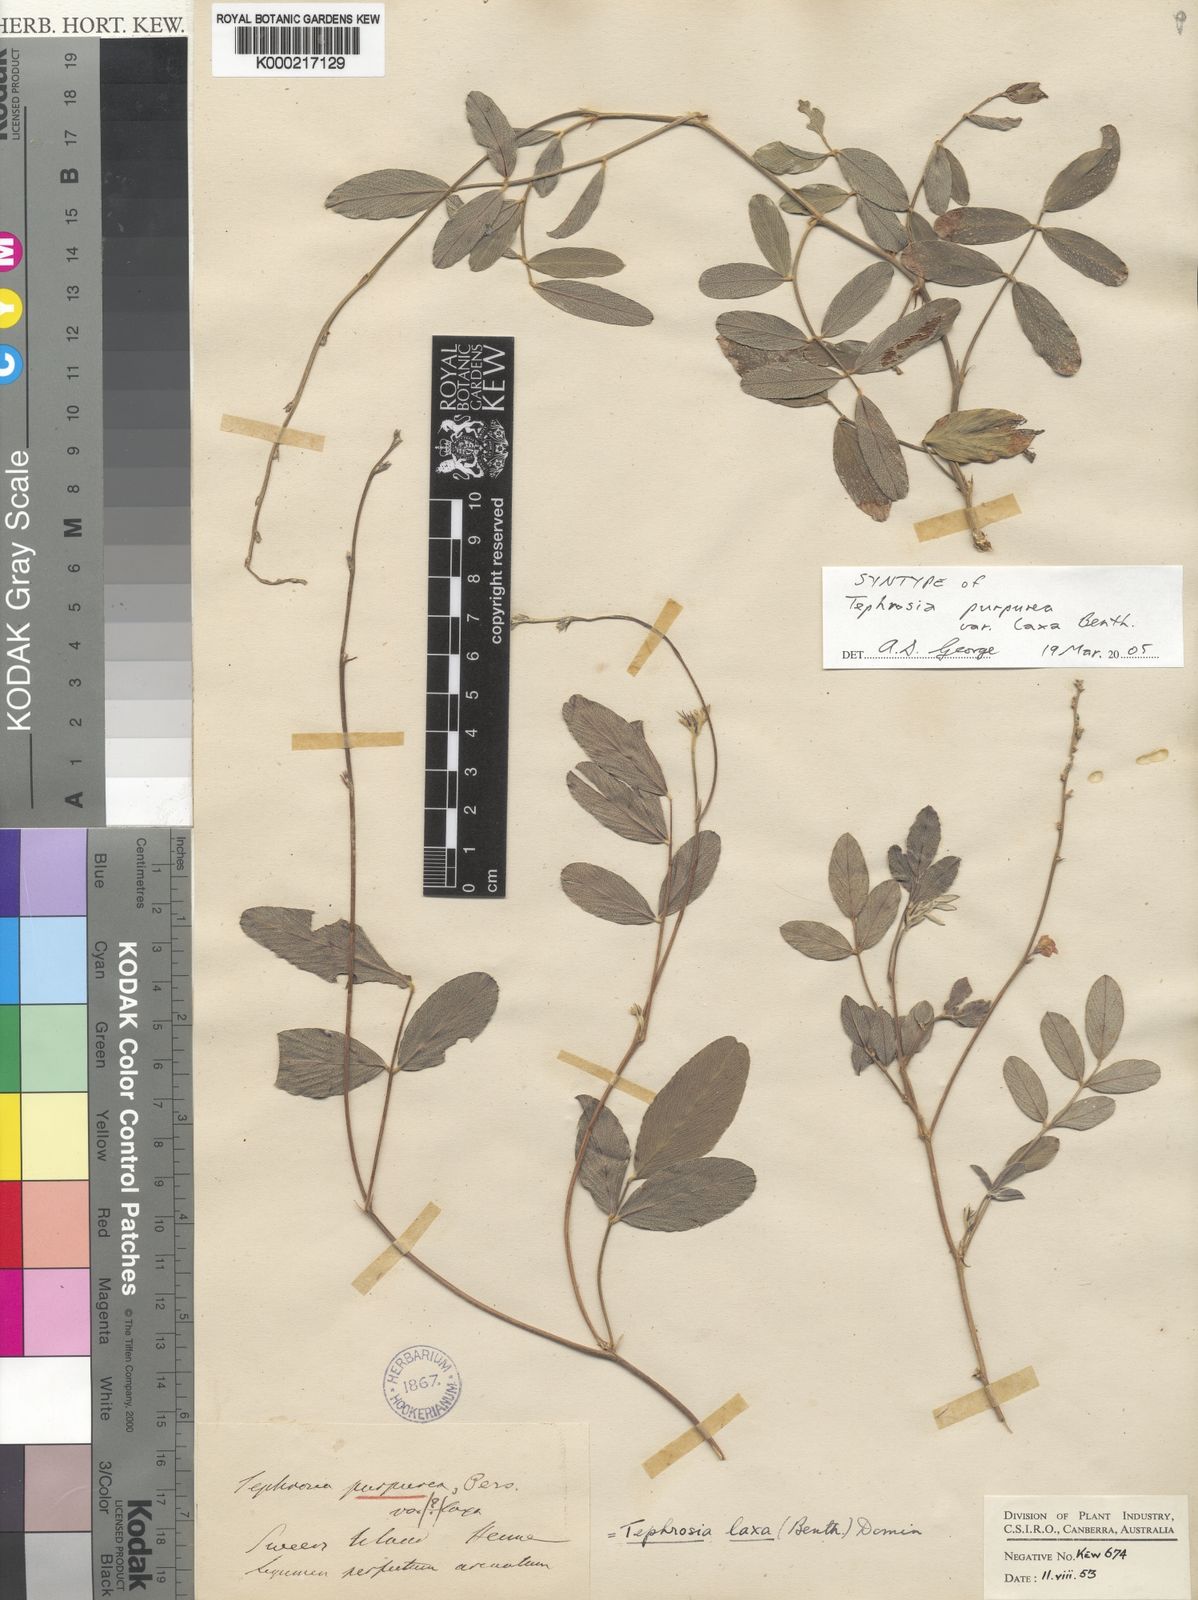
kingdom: Plantae
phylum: Tracheophyta
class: Magnoliopsida
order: Fabales
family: Fabaceae
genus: Tephrosia
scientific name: Tephrosia purpurea
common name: Fishpoison
